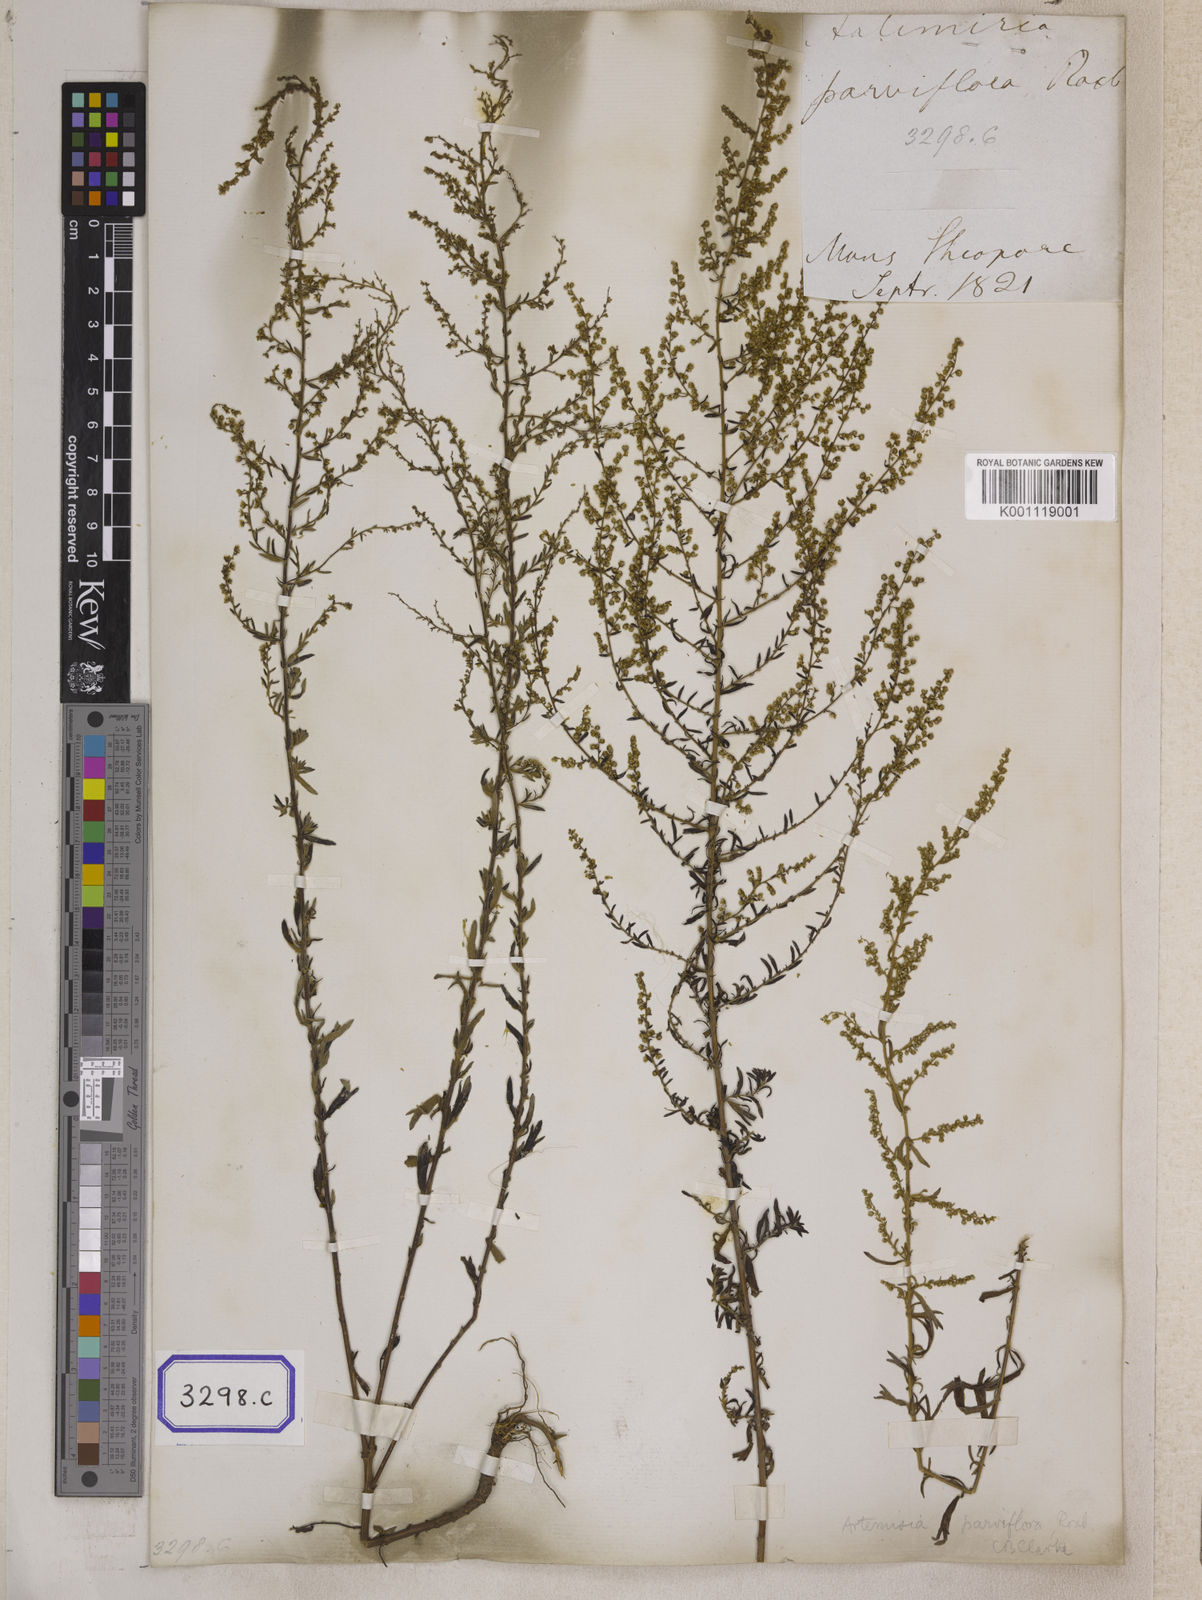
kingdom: Plantae
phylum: Tracheophyta
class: Magnoliopsida
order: Asterales
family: Asteraceae
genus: Artemisia
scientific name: Artemisia parviflora
